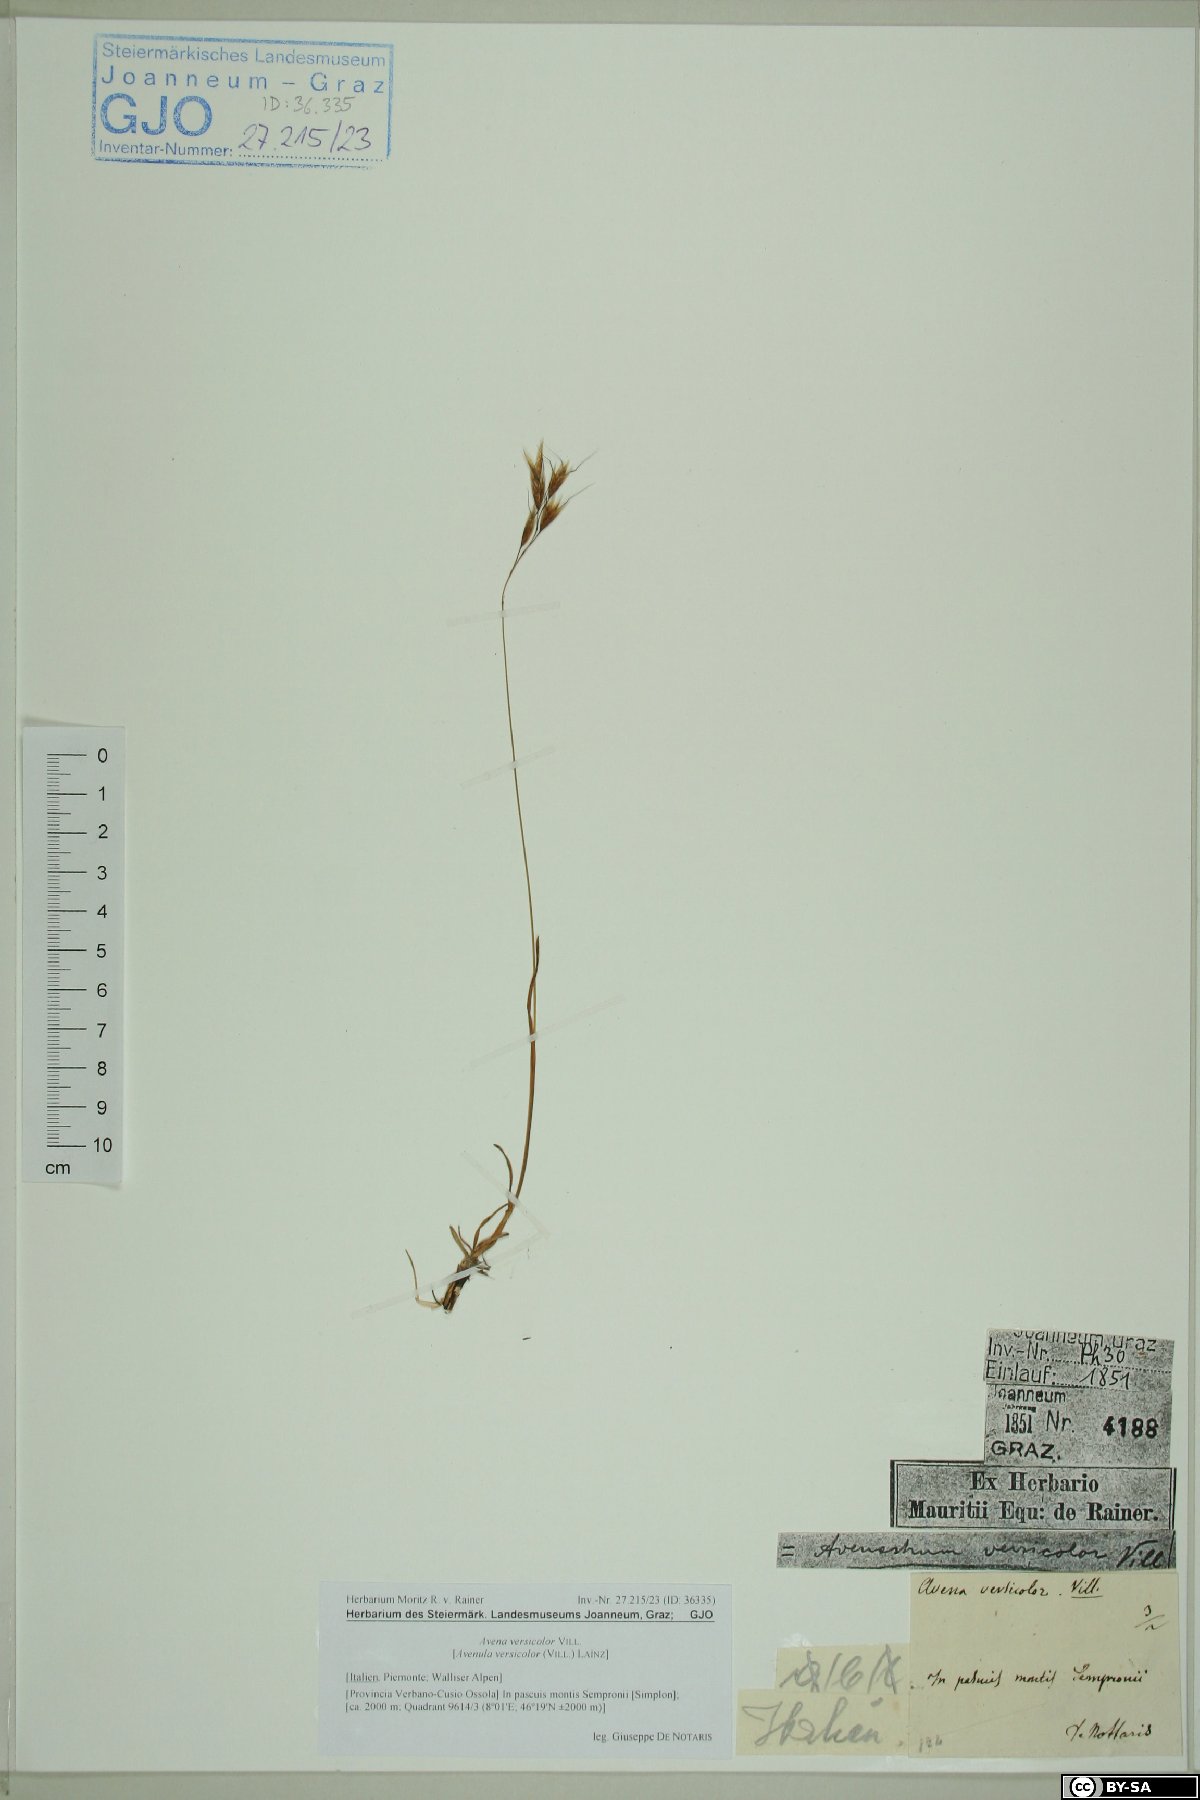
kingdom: Plantae
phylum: Tracheophyta
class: Liliopsida
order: Poales
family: Poaceae
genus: Helictochloa
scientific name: Helictochloa versicolor
